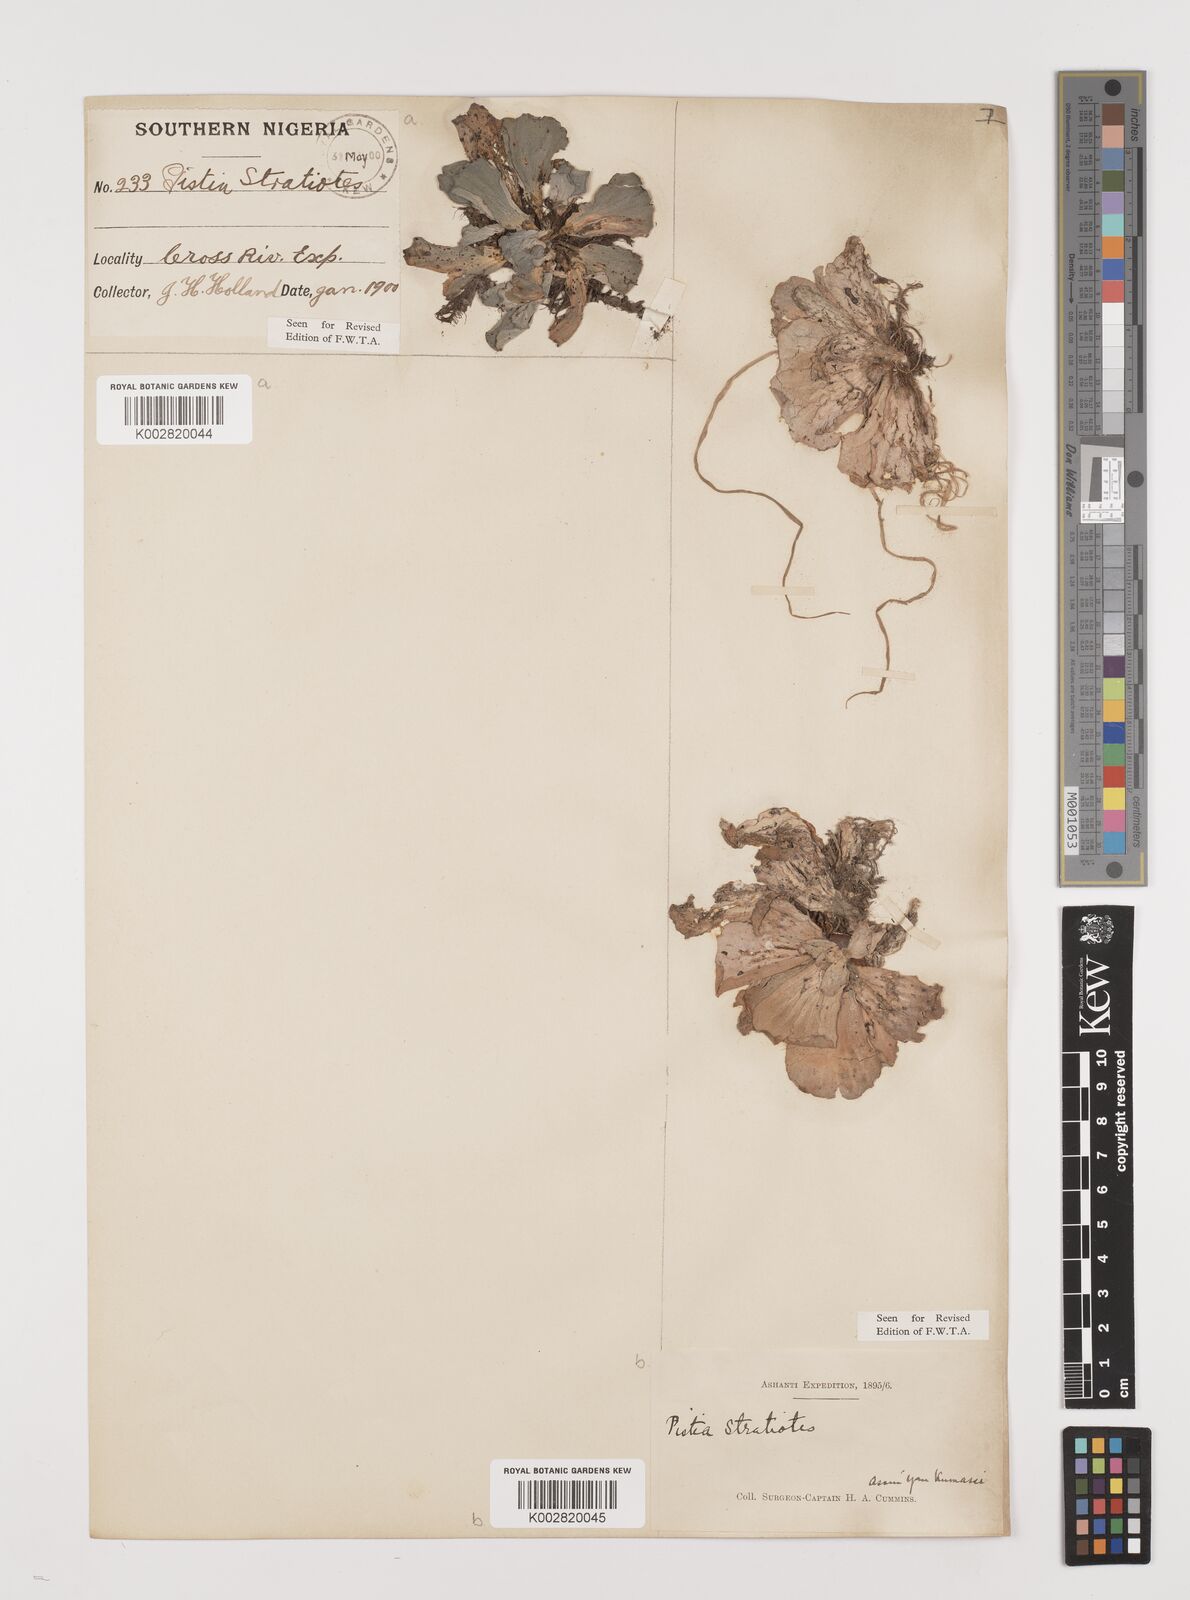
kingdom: Plantae
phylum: Tracheophyta
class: Liliopsida
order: Alismatales
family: Araceae
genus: Pistia
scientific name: Pistia stratiotes
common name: Water lettuce
